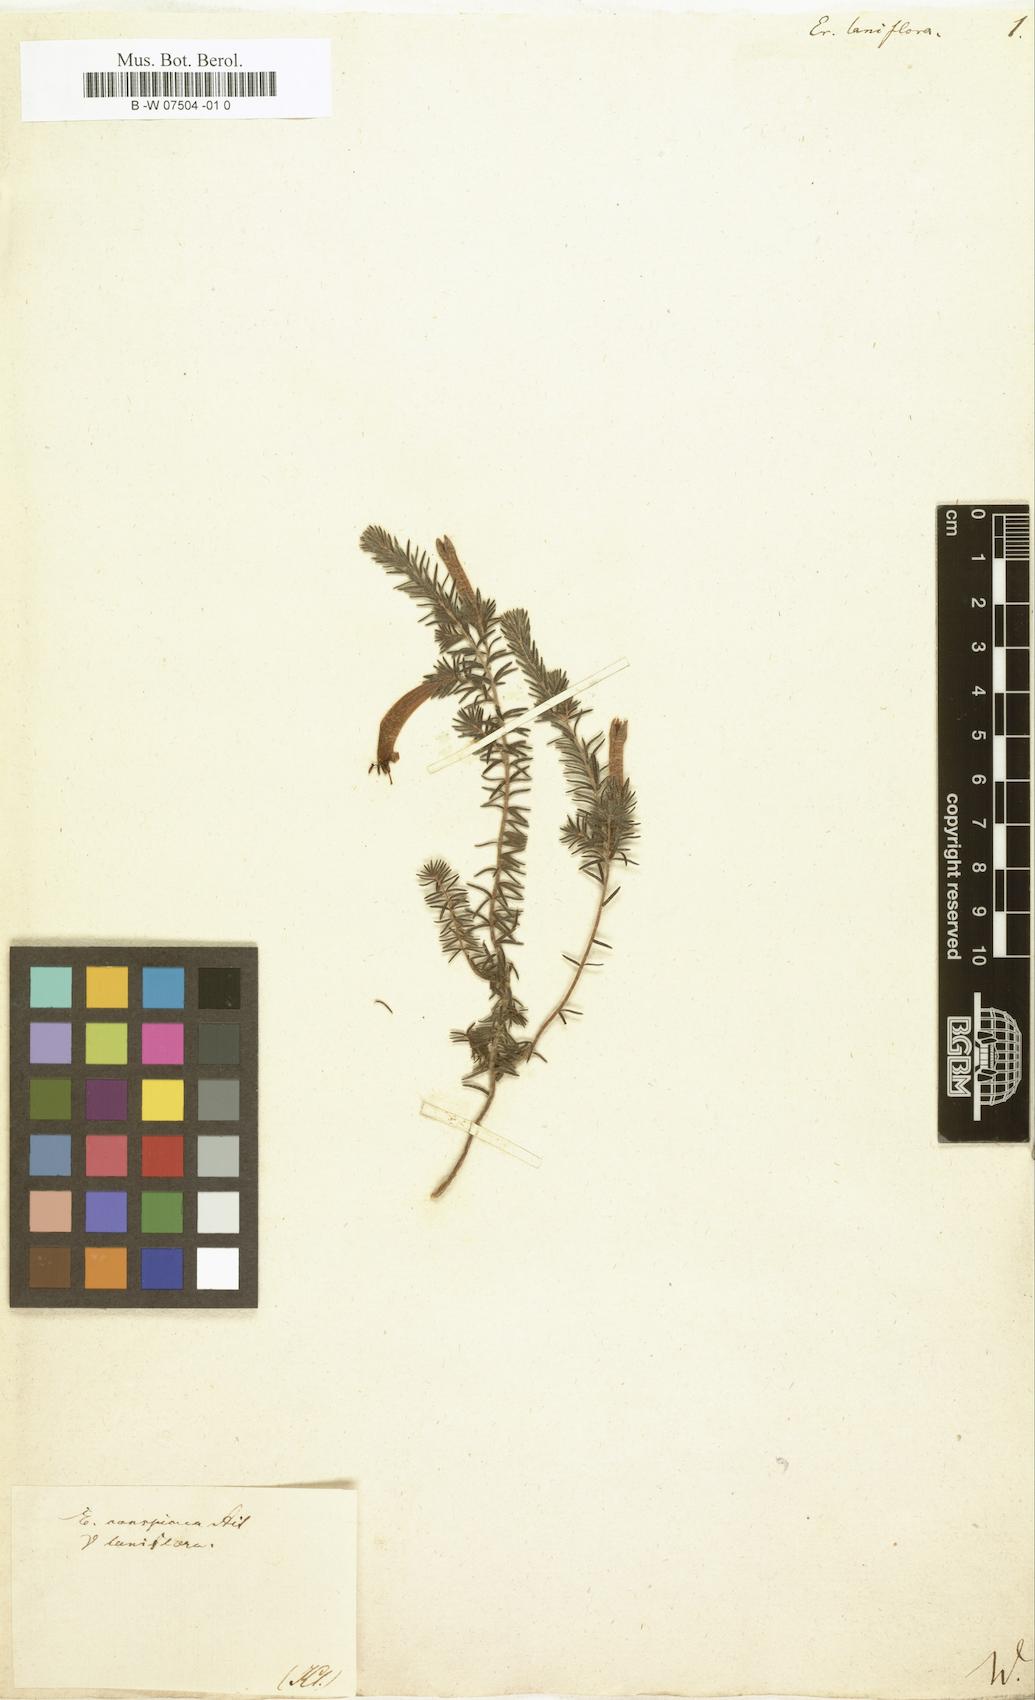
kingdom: Plantae
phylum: Tracheophyta
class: Magnoliopsida
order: Ericales
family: Ericaceae
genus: Erica
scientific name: Erica
